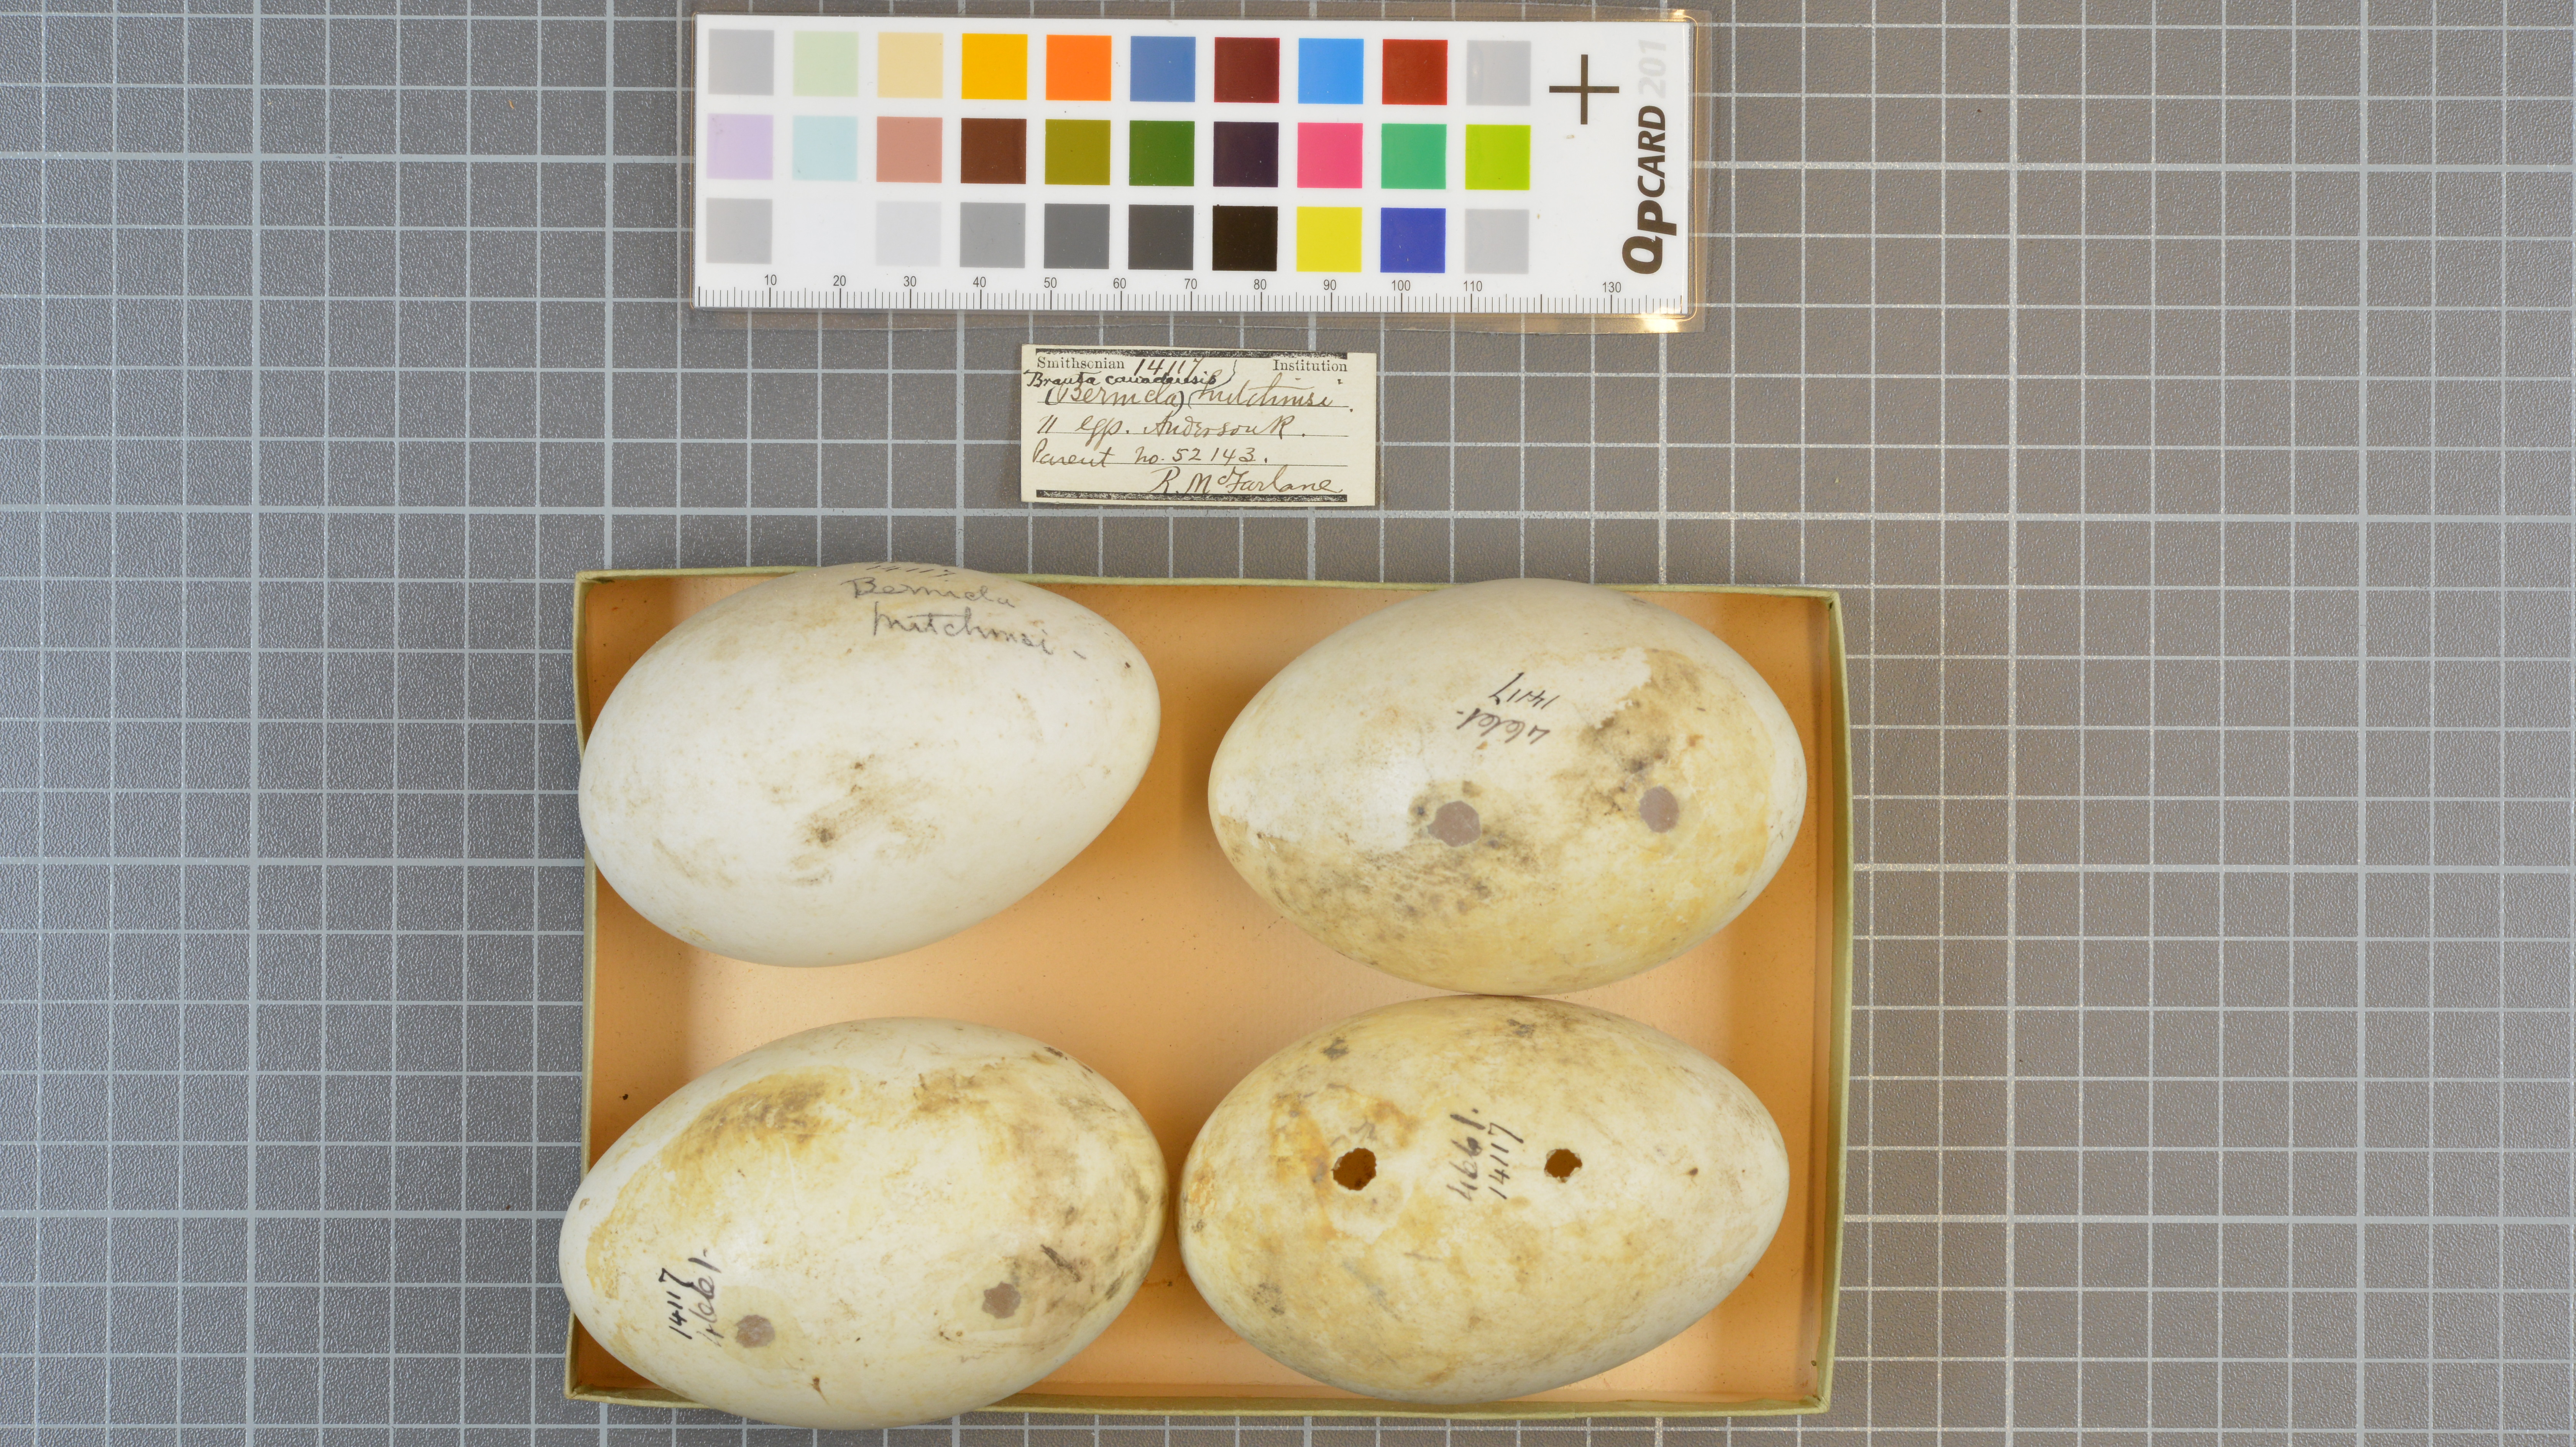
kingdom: Animalia
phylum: Chordata
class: Aves
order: Anseriformes
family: Anatidae
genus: Branta
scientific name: Branta canadensis
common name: Canada goose
